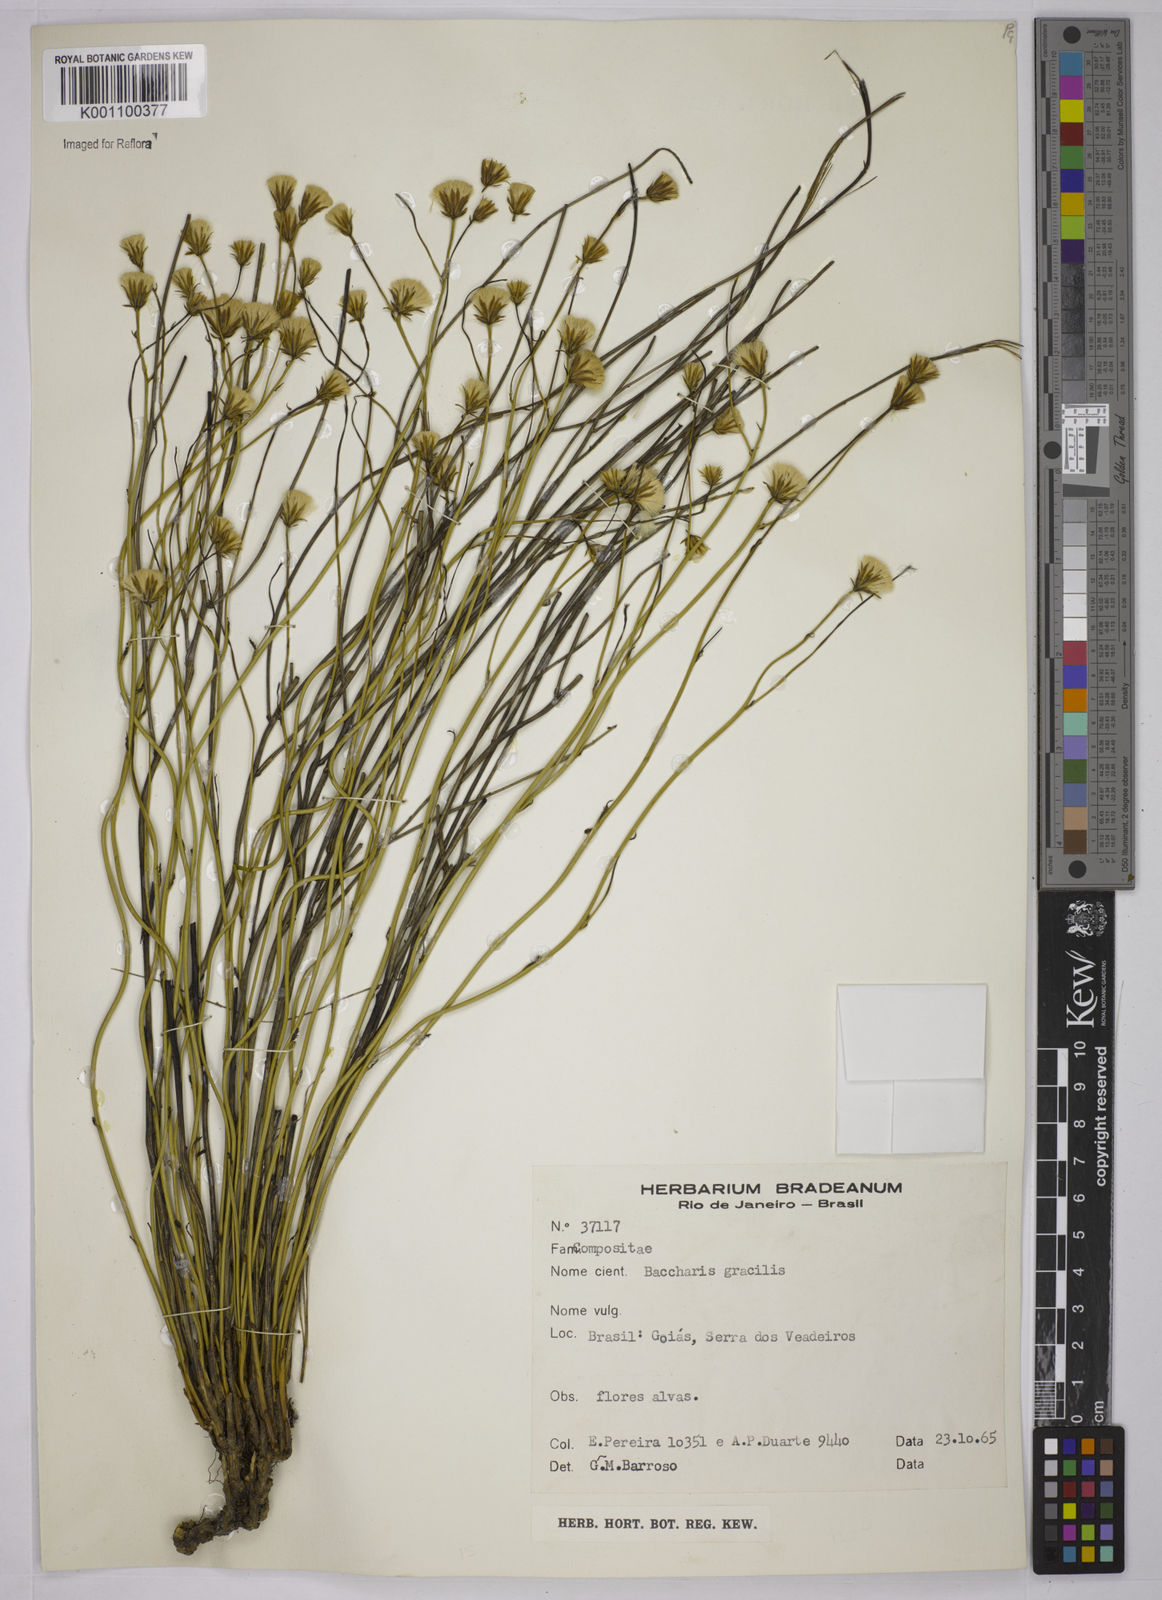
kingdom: Plantae
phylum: Tracheophyta
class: Magnoliopsida
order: Asterales
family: Asteraceae
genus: Baccharis
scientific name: Baccharis orbignyana
